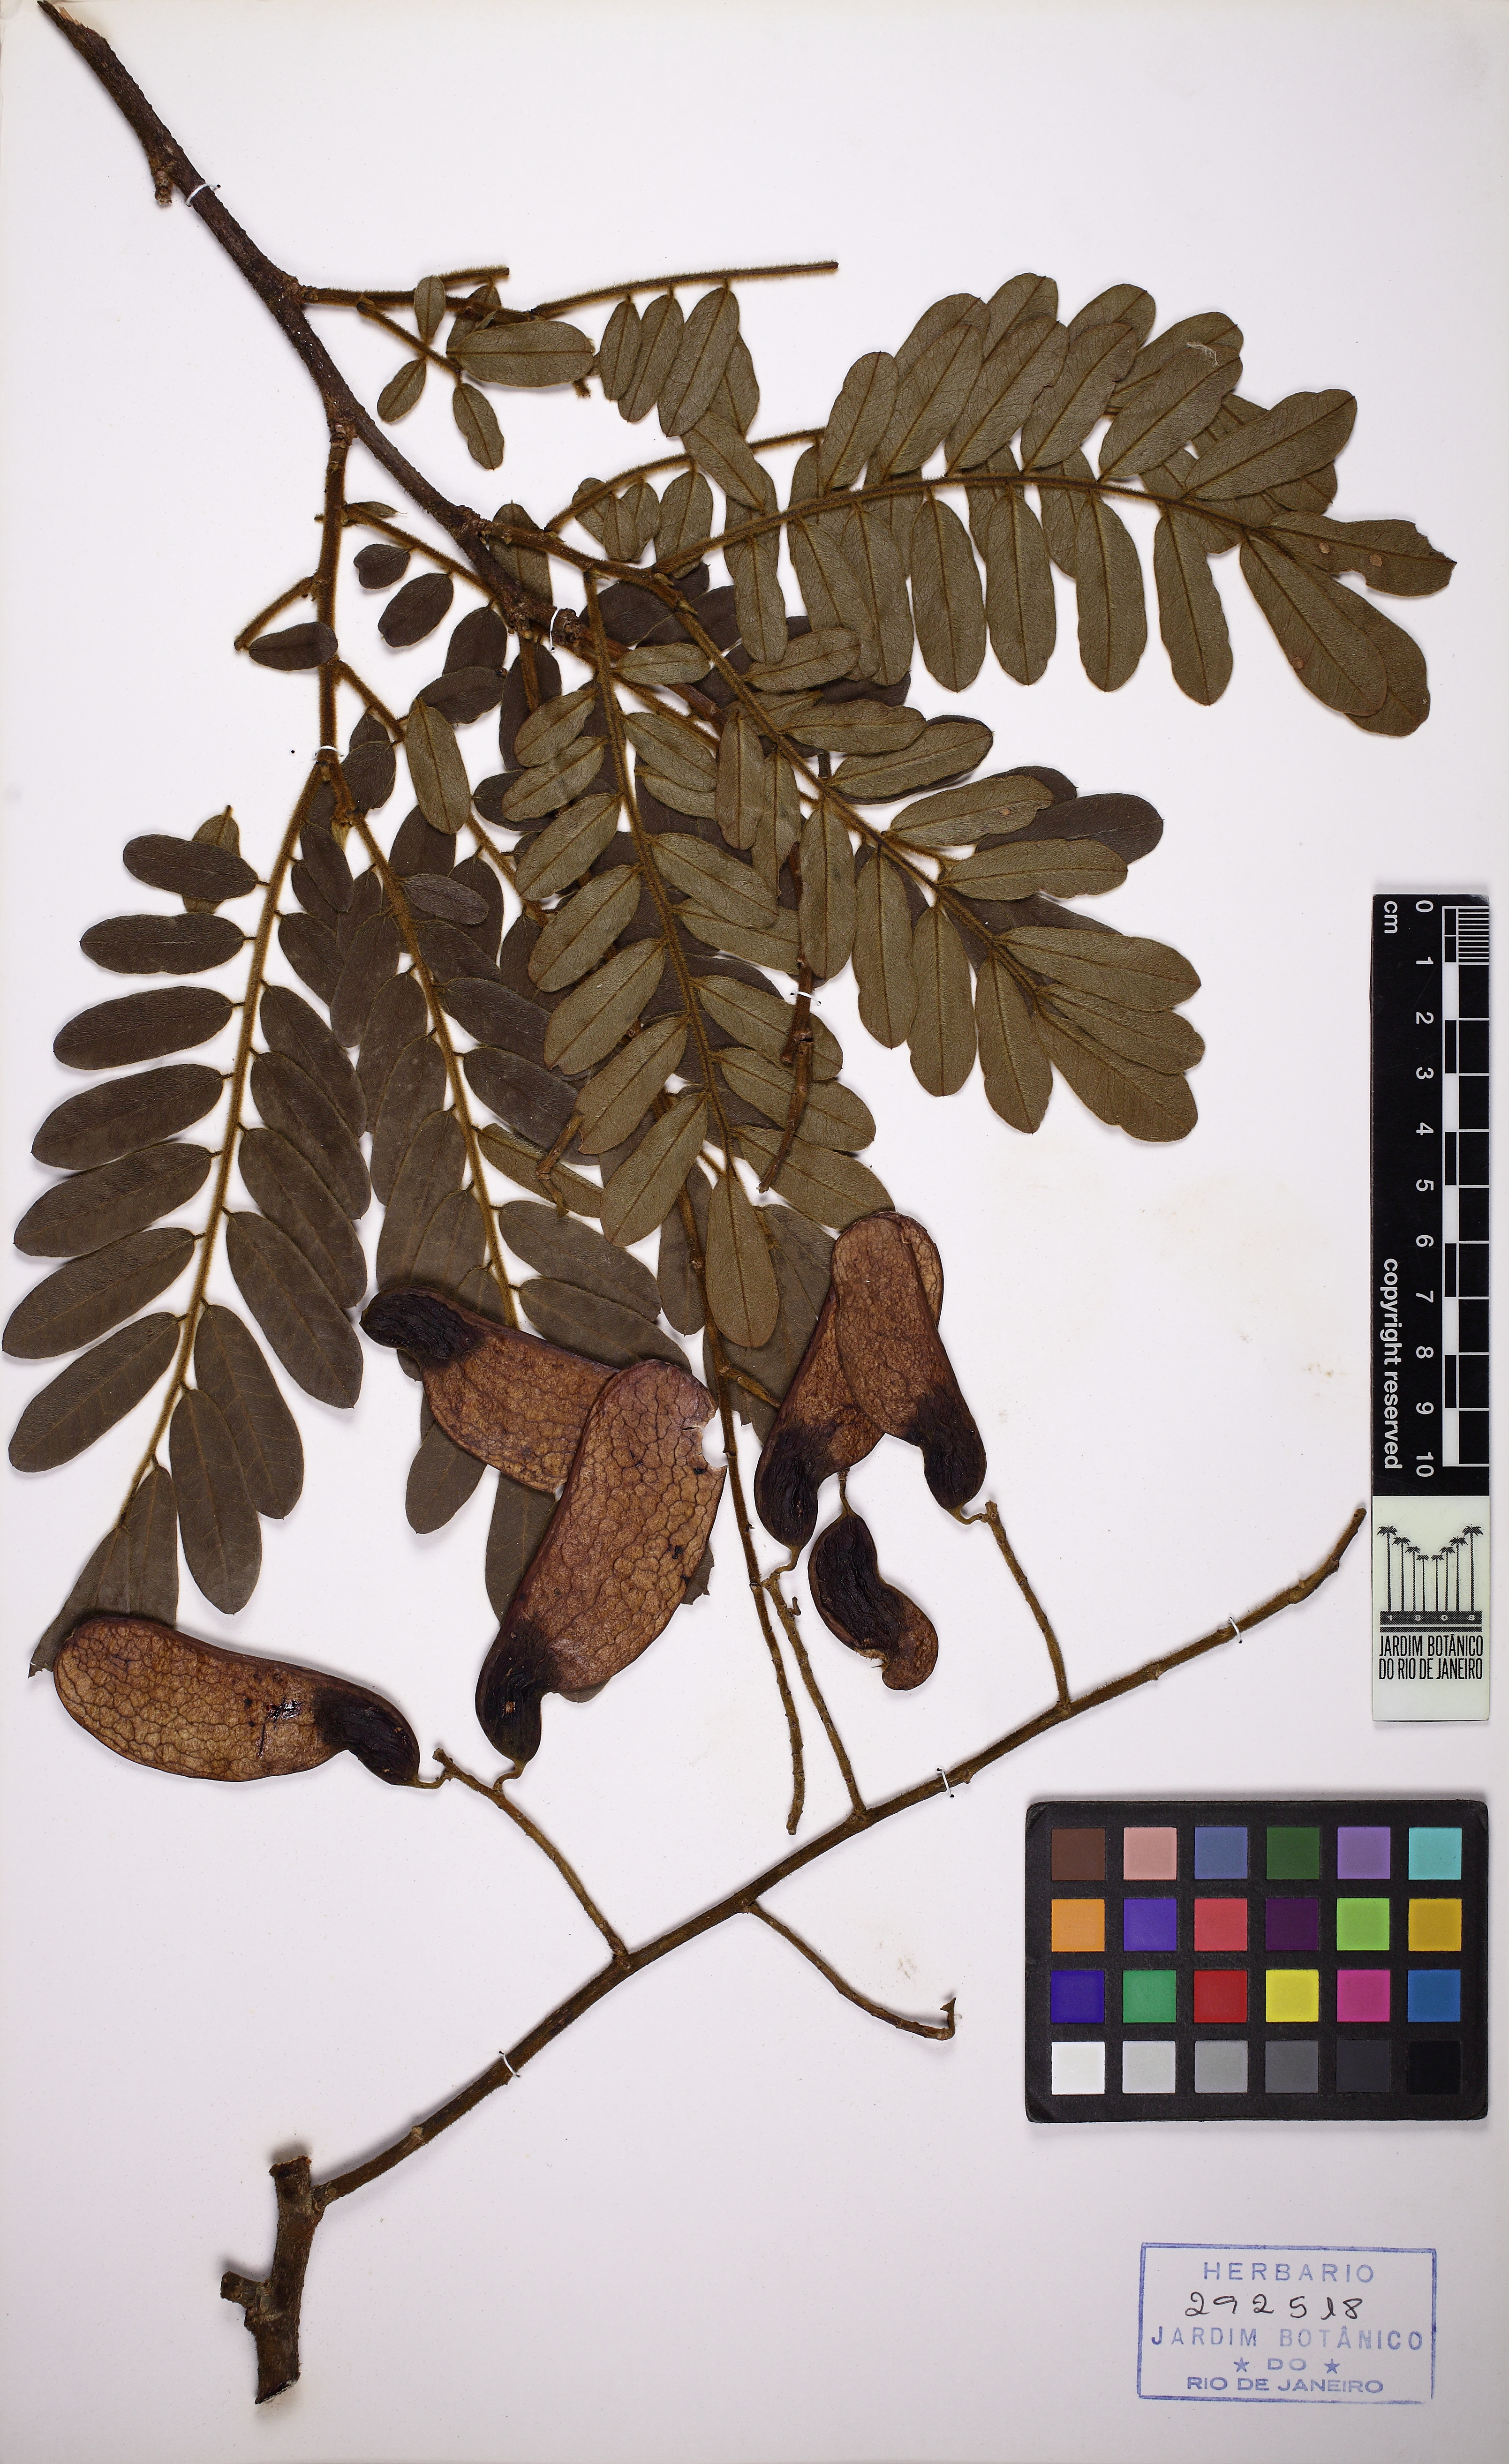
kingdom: Plantae
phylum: Tracheophyta
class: Magnoliopsida
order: Fabales
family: Fabaceae
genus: Machaerium
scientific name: Machaerium nyctitans
